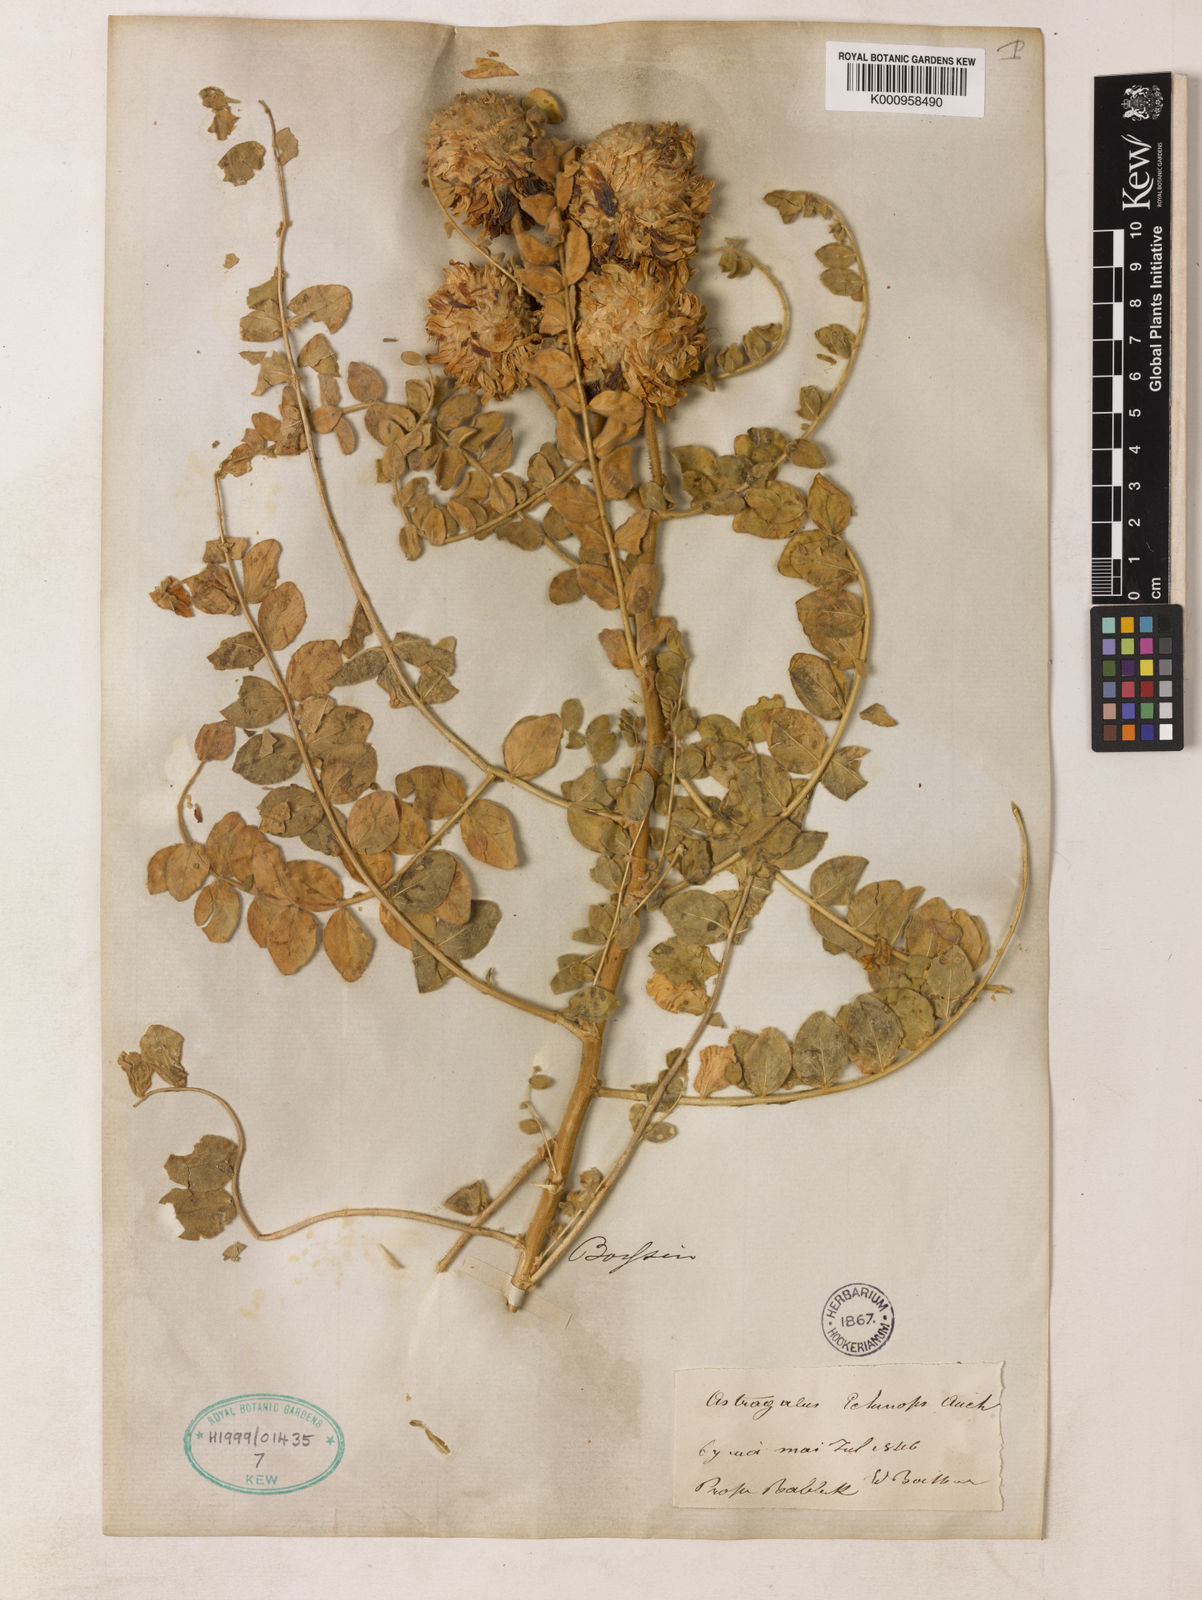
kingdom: Plantae
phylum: Tracheophyta
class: Magnoliopsida
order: Fabales
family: Fabaceae
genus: Astragalus
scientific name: Astragalus echinops
